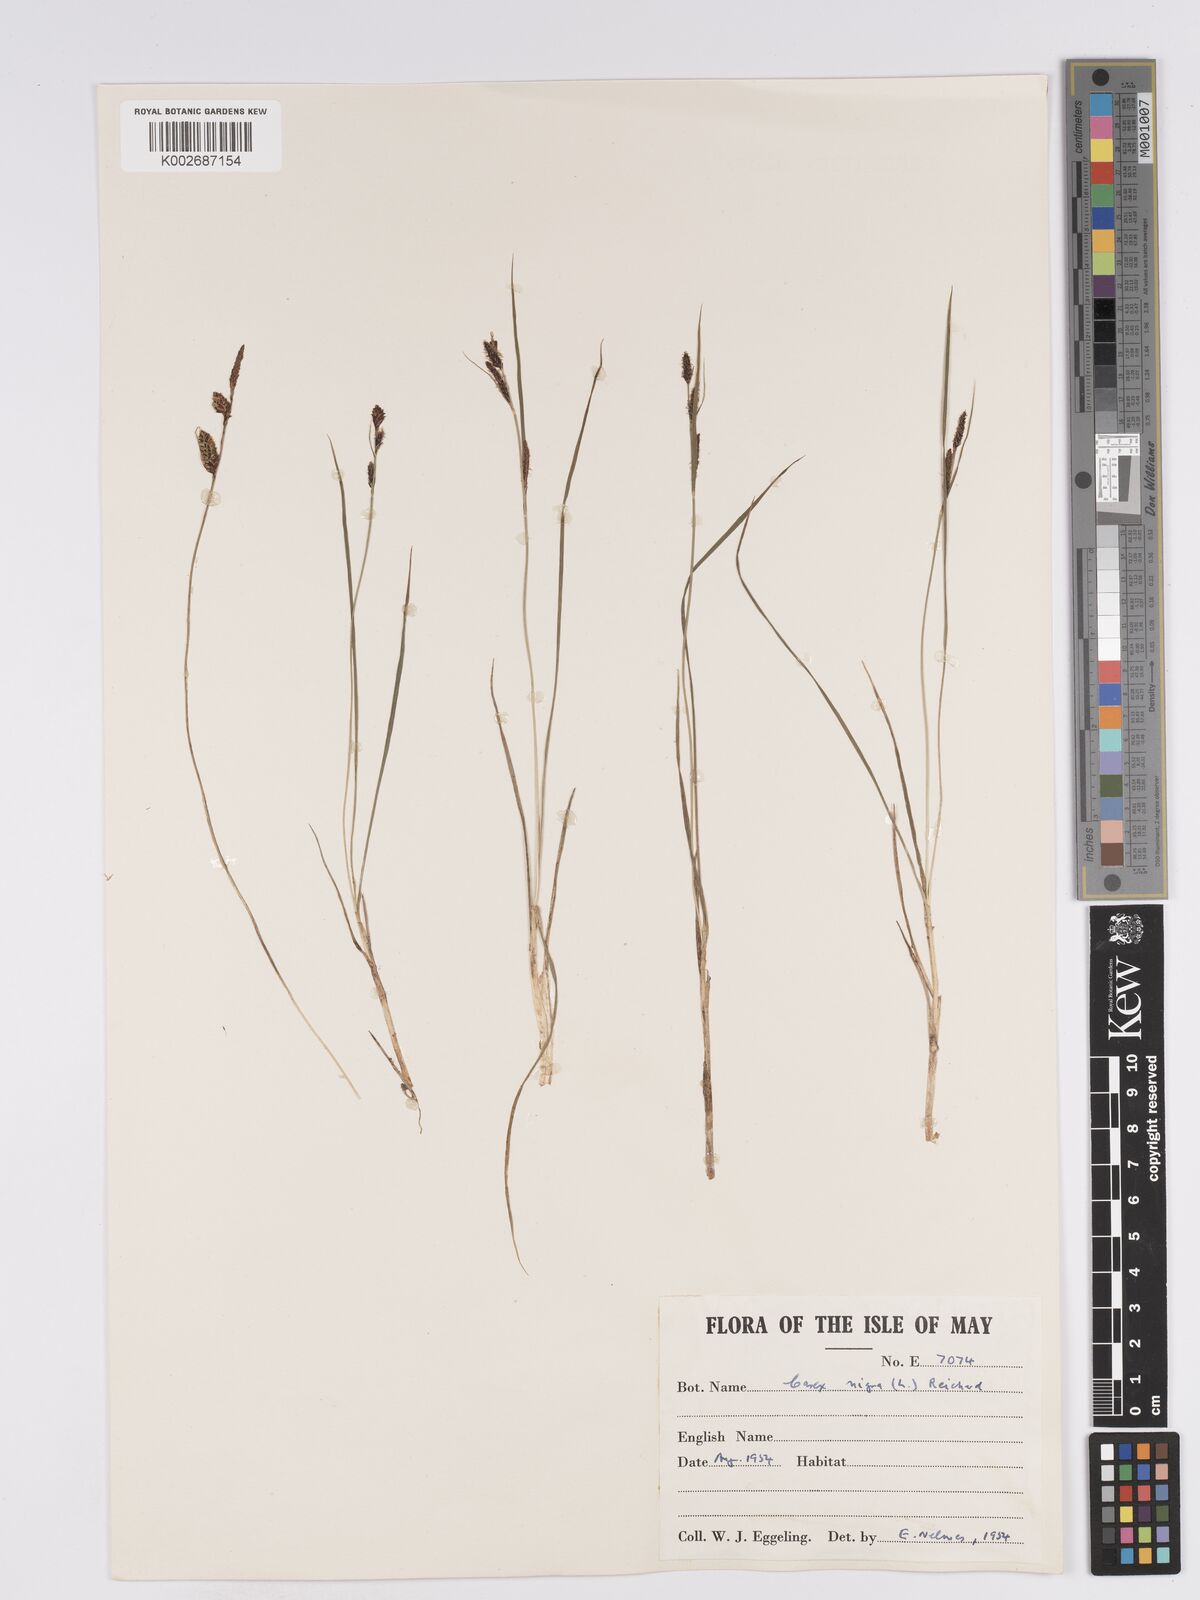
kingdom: Plantae
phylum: Tracheophyta
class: Liliopsida
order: Poales
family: Cyperaceae
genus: Carex
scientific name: Carex nigra
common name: Common sedge
